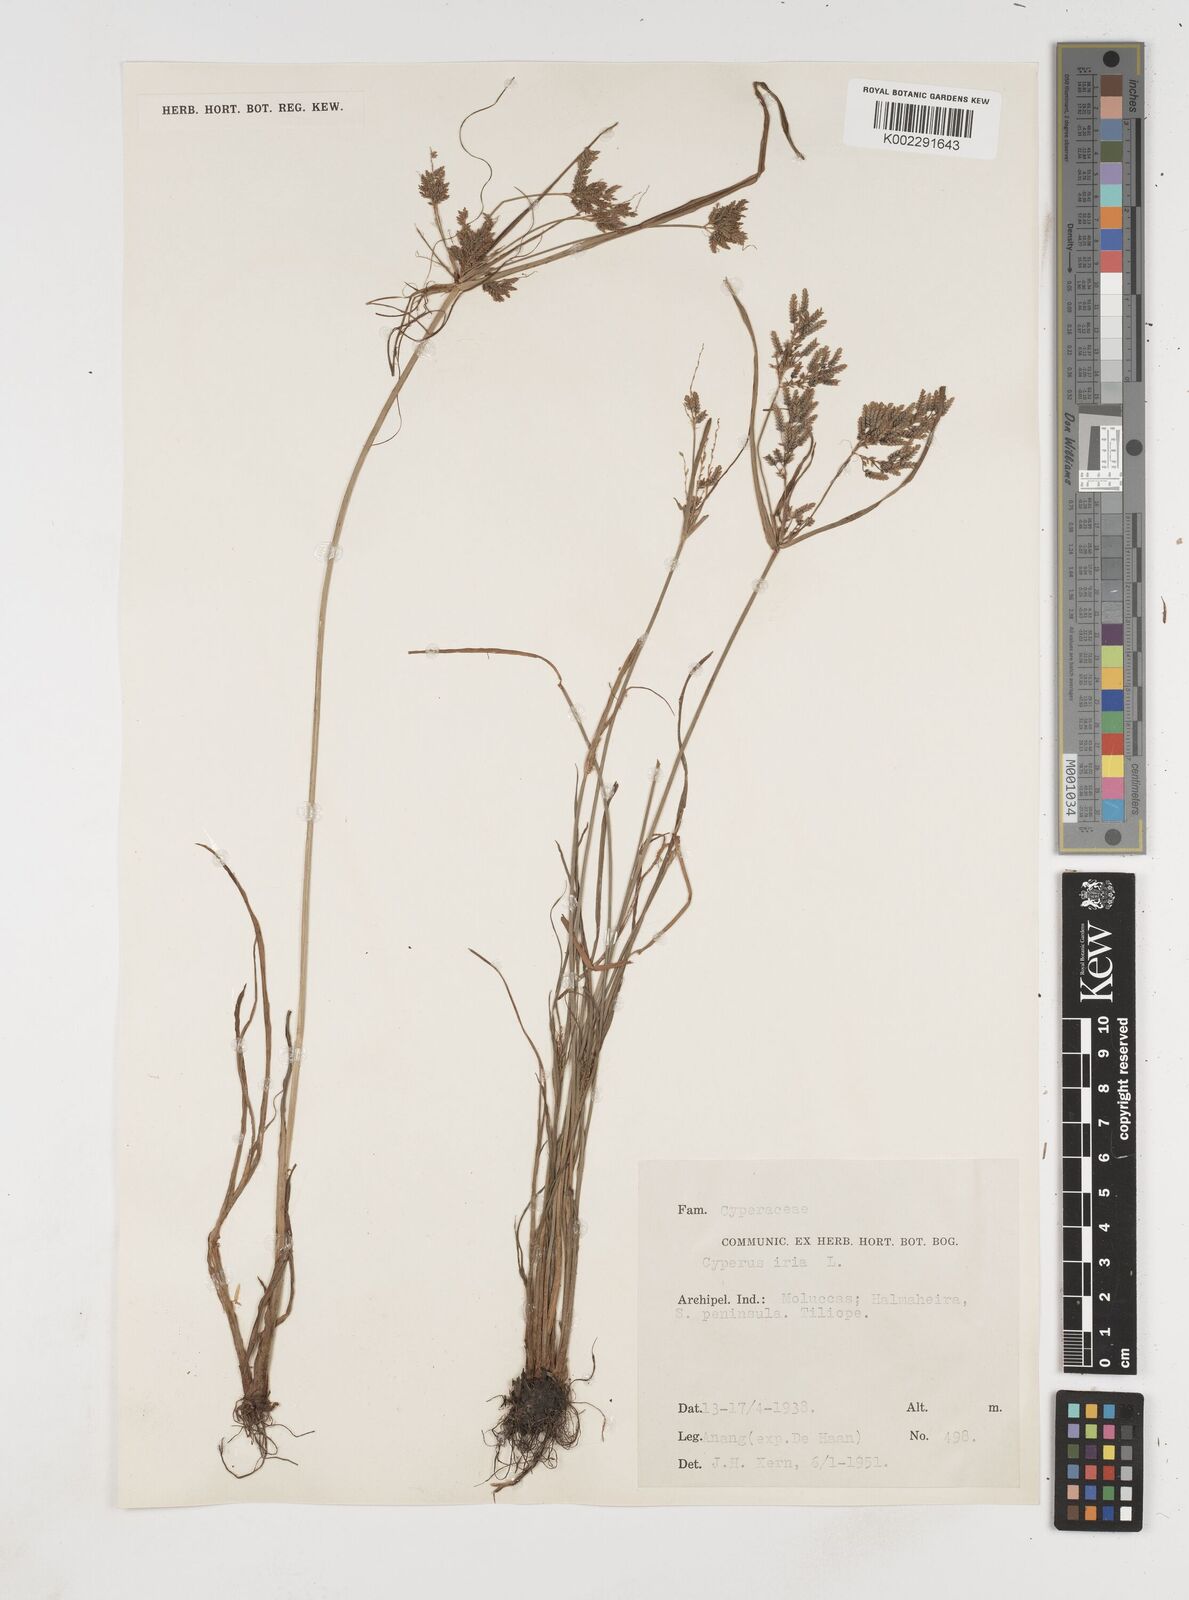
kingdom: Plantae
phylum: Tracheophyta
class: Liliopsida
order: Poales
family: Cyperaceae
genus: Cyperus
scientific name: Cyperus iria
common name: Ricefield flatsedge
